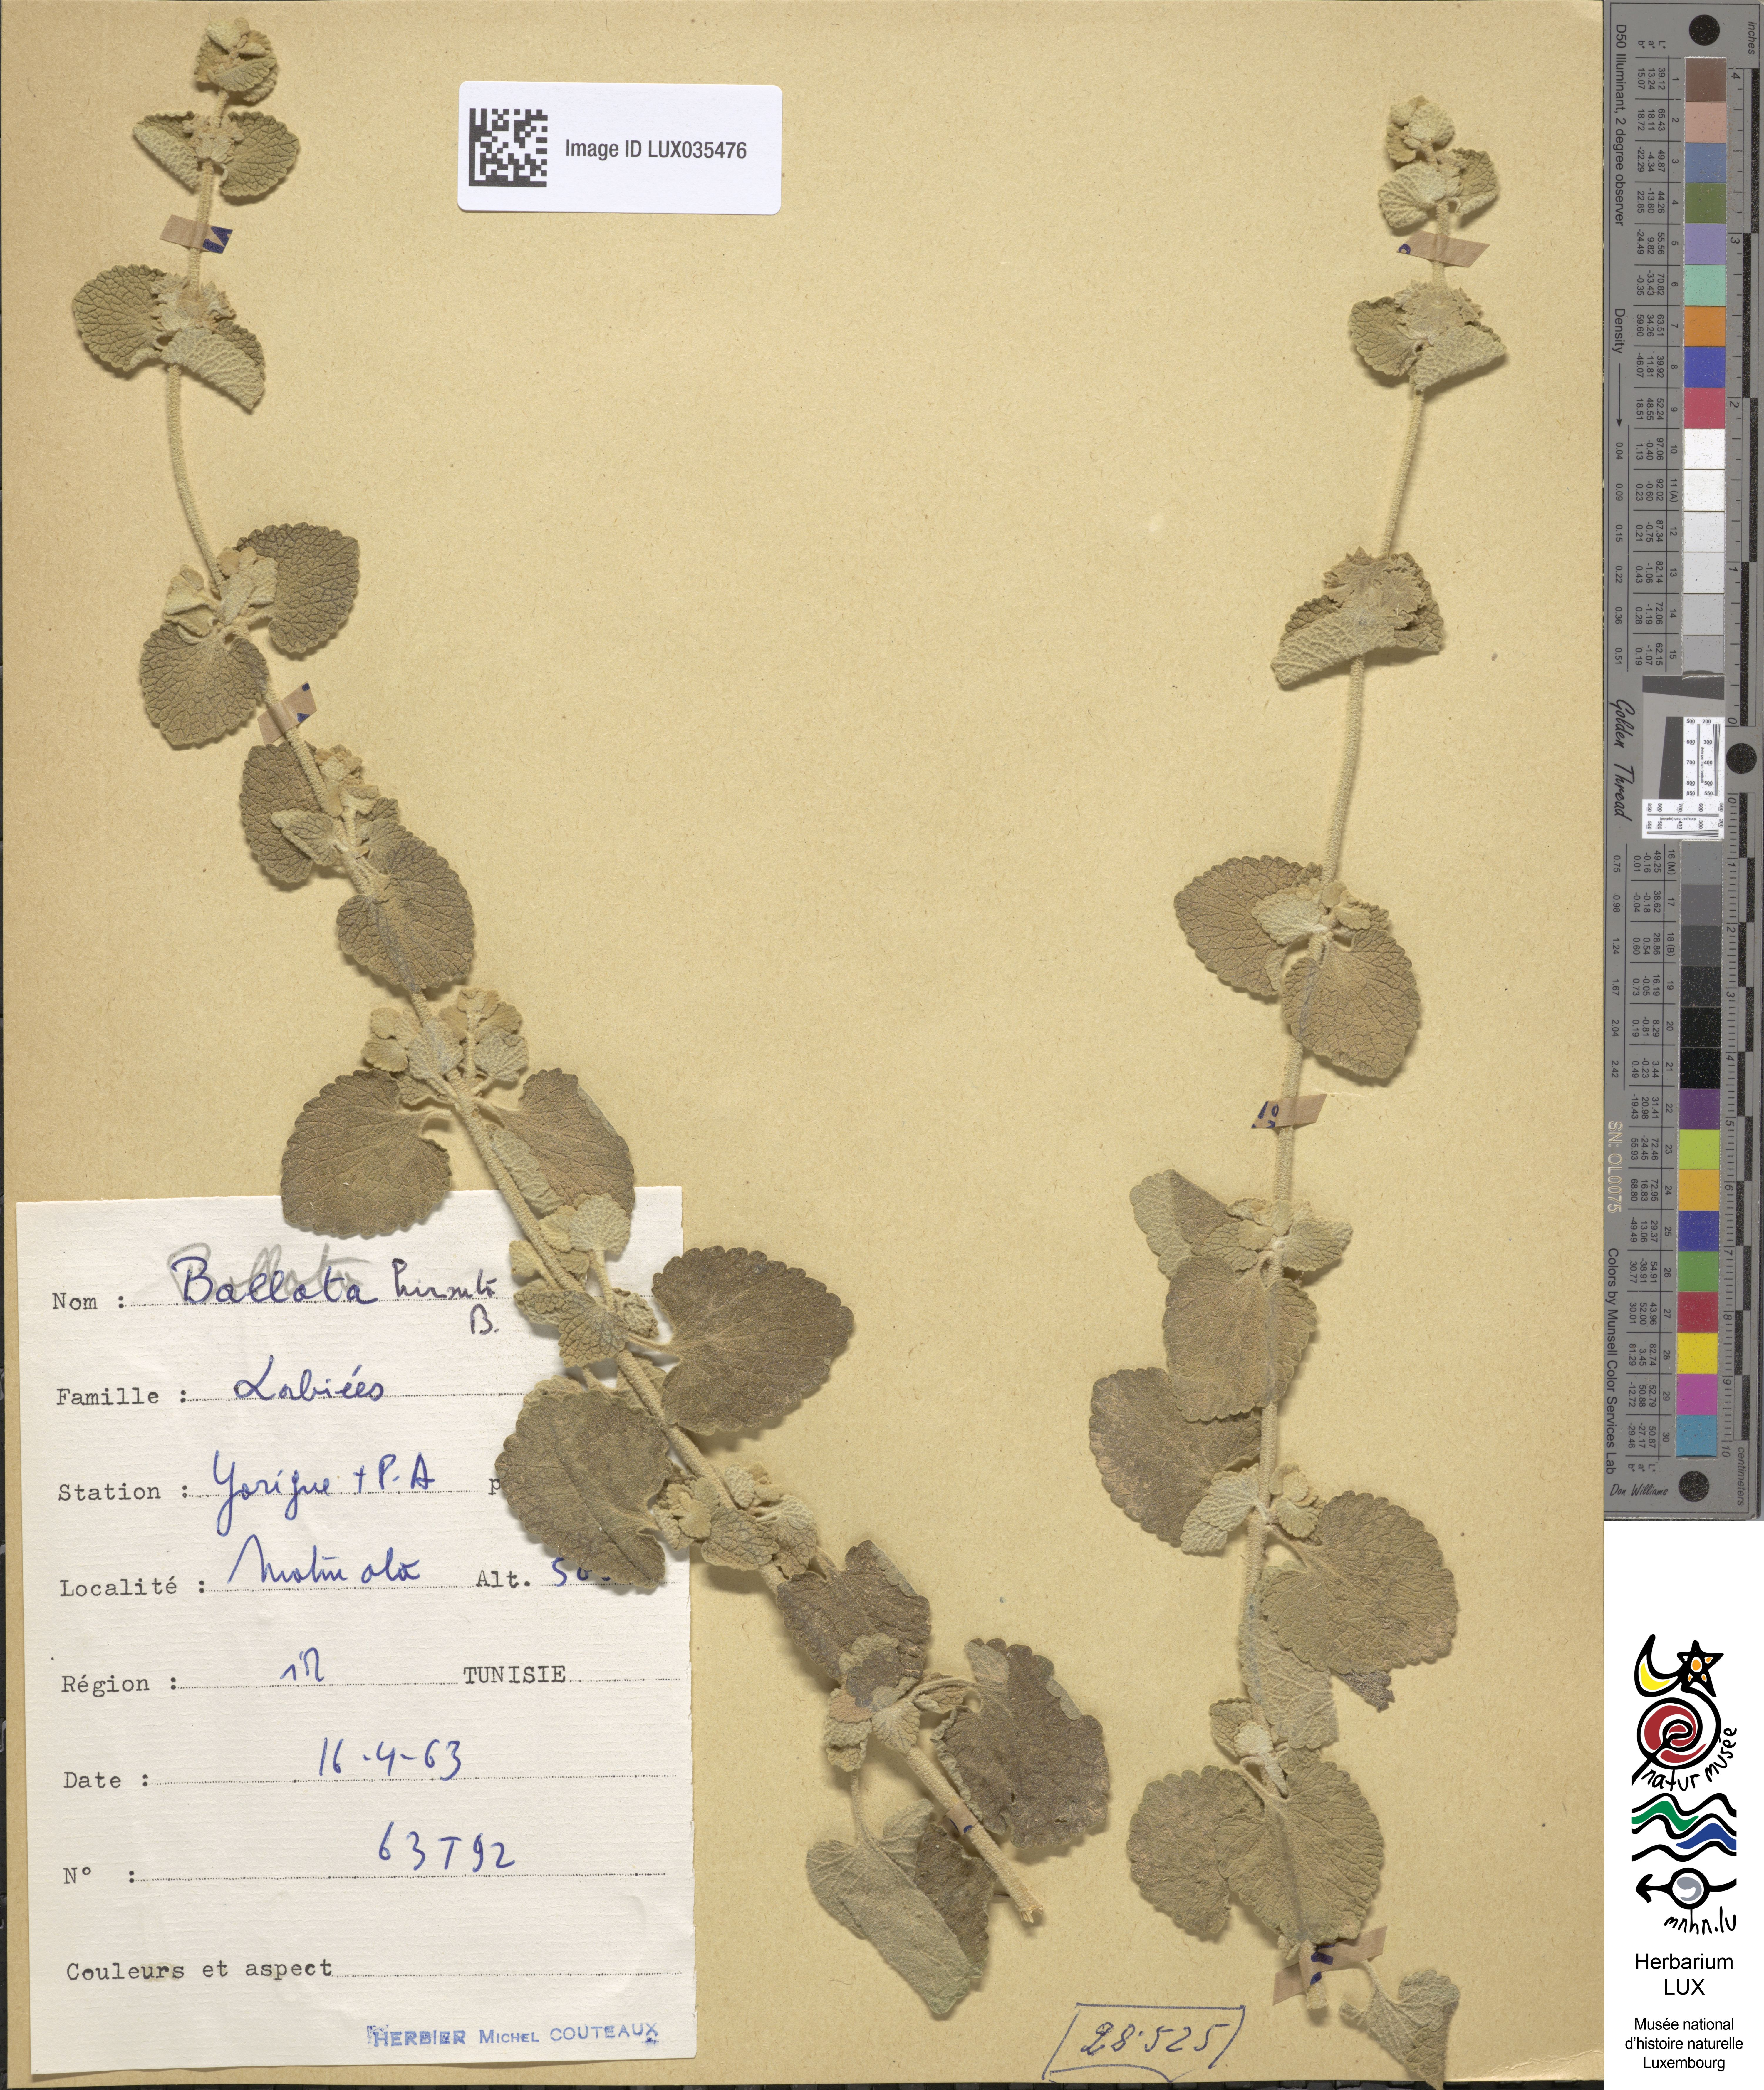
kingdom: Plantae
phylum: Tracheophyta
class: Magnoliopsida
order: Lamiales
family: Lamiaceae
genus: Ballota
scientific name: Ballota hirsuta
